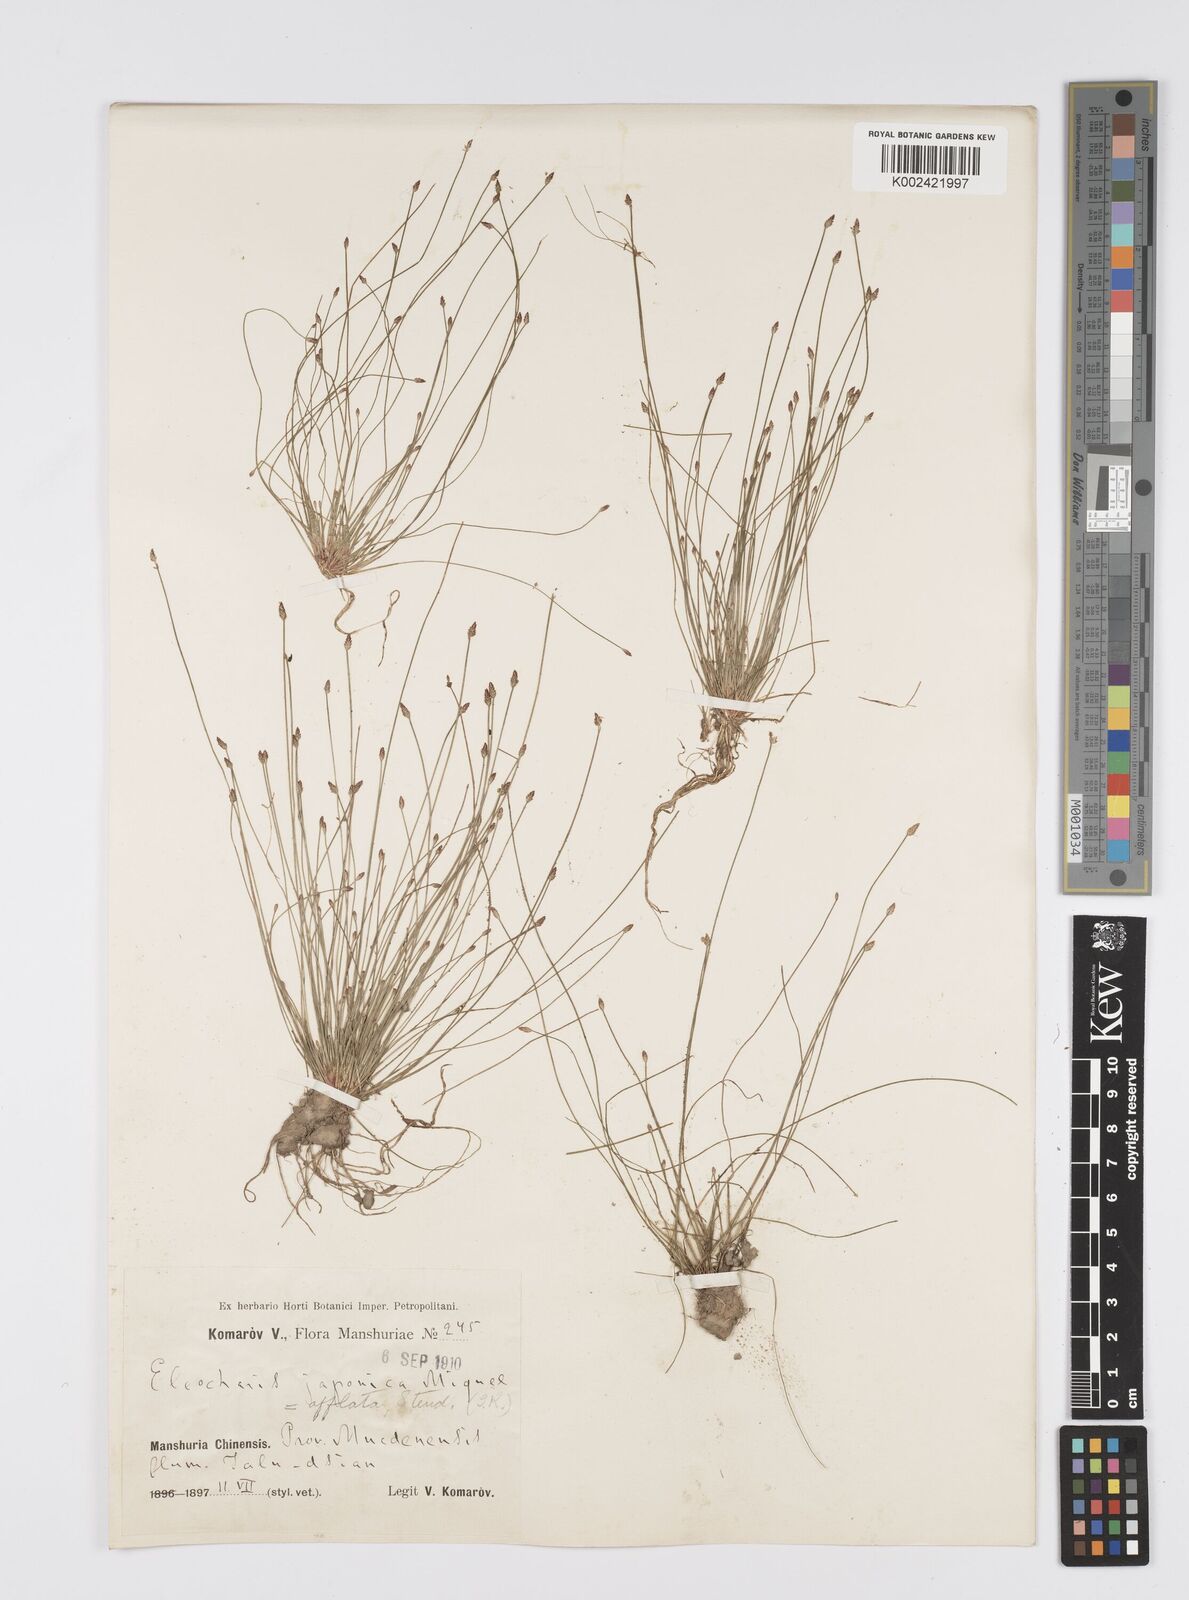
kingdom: Plantae
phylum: Tracheophyta
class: Liliopsida
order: Poales
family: Cyperaceae
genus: Eleocharis
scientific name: Eleocharis pellucida
